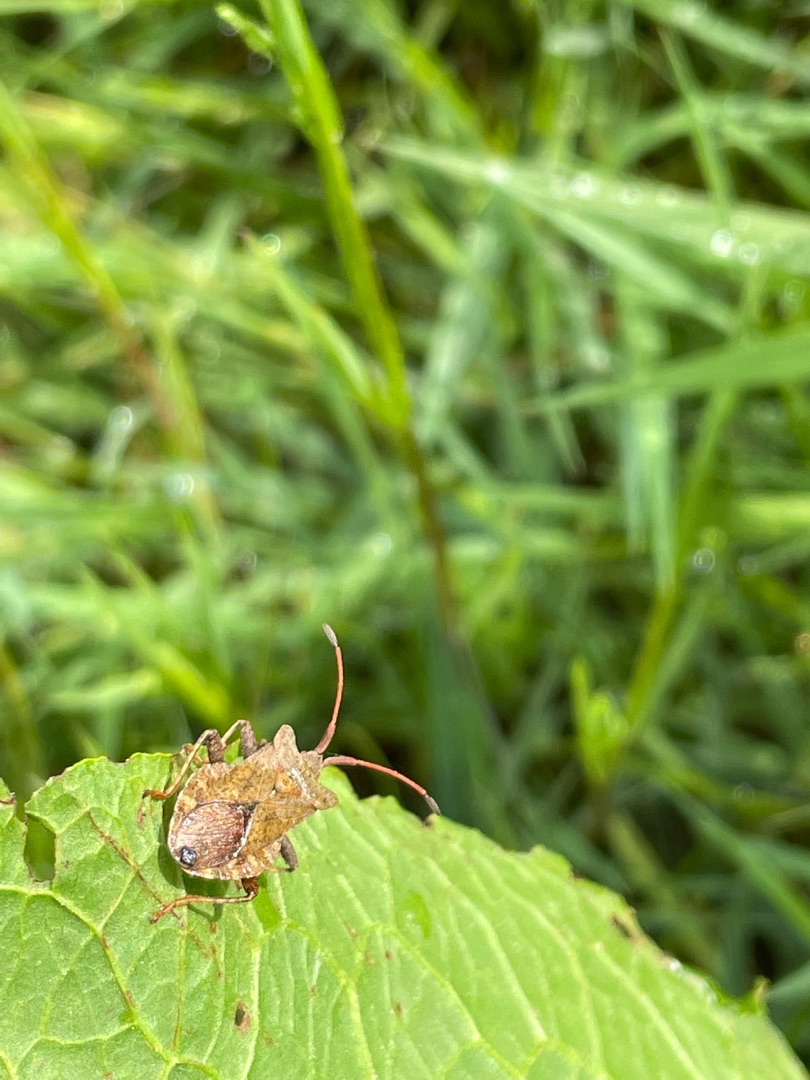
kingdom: Animalia
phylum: Arthropoda
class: Insecta
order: Hemiptera
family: Coreidae
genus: Coreus
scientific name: Coreus marginatus
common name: Skræppetæge
